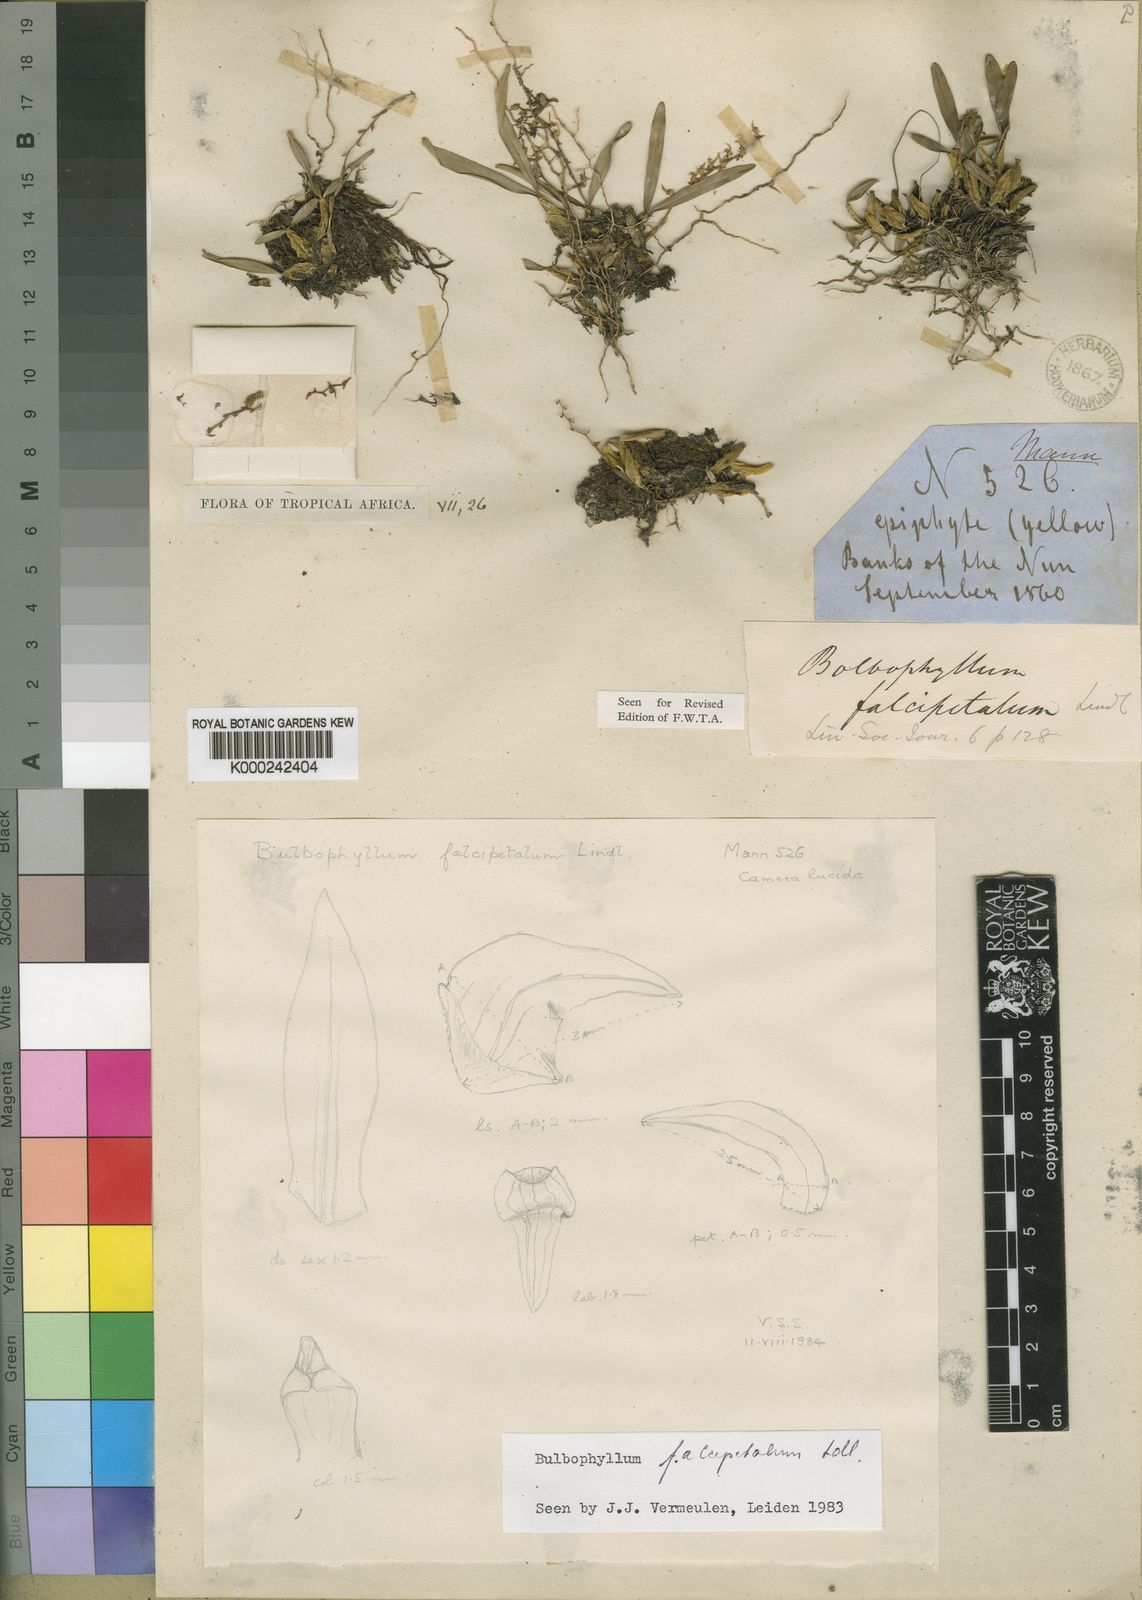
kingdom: Plantae
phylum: Tracheophyta
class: Liliopsida
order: Asparagales
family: Orchidaceae
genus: Bulbophyllum
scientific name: Bulbophyllum
